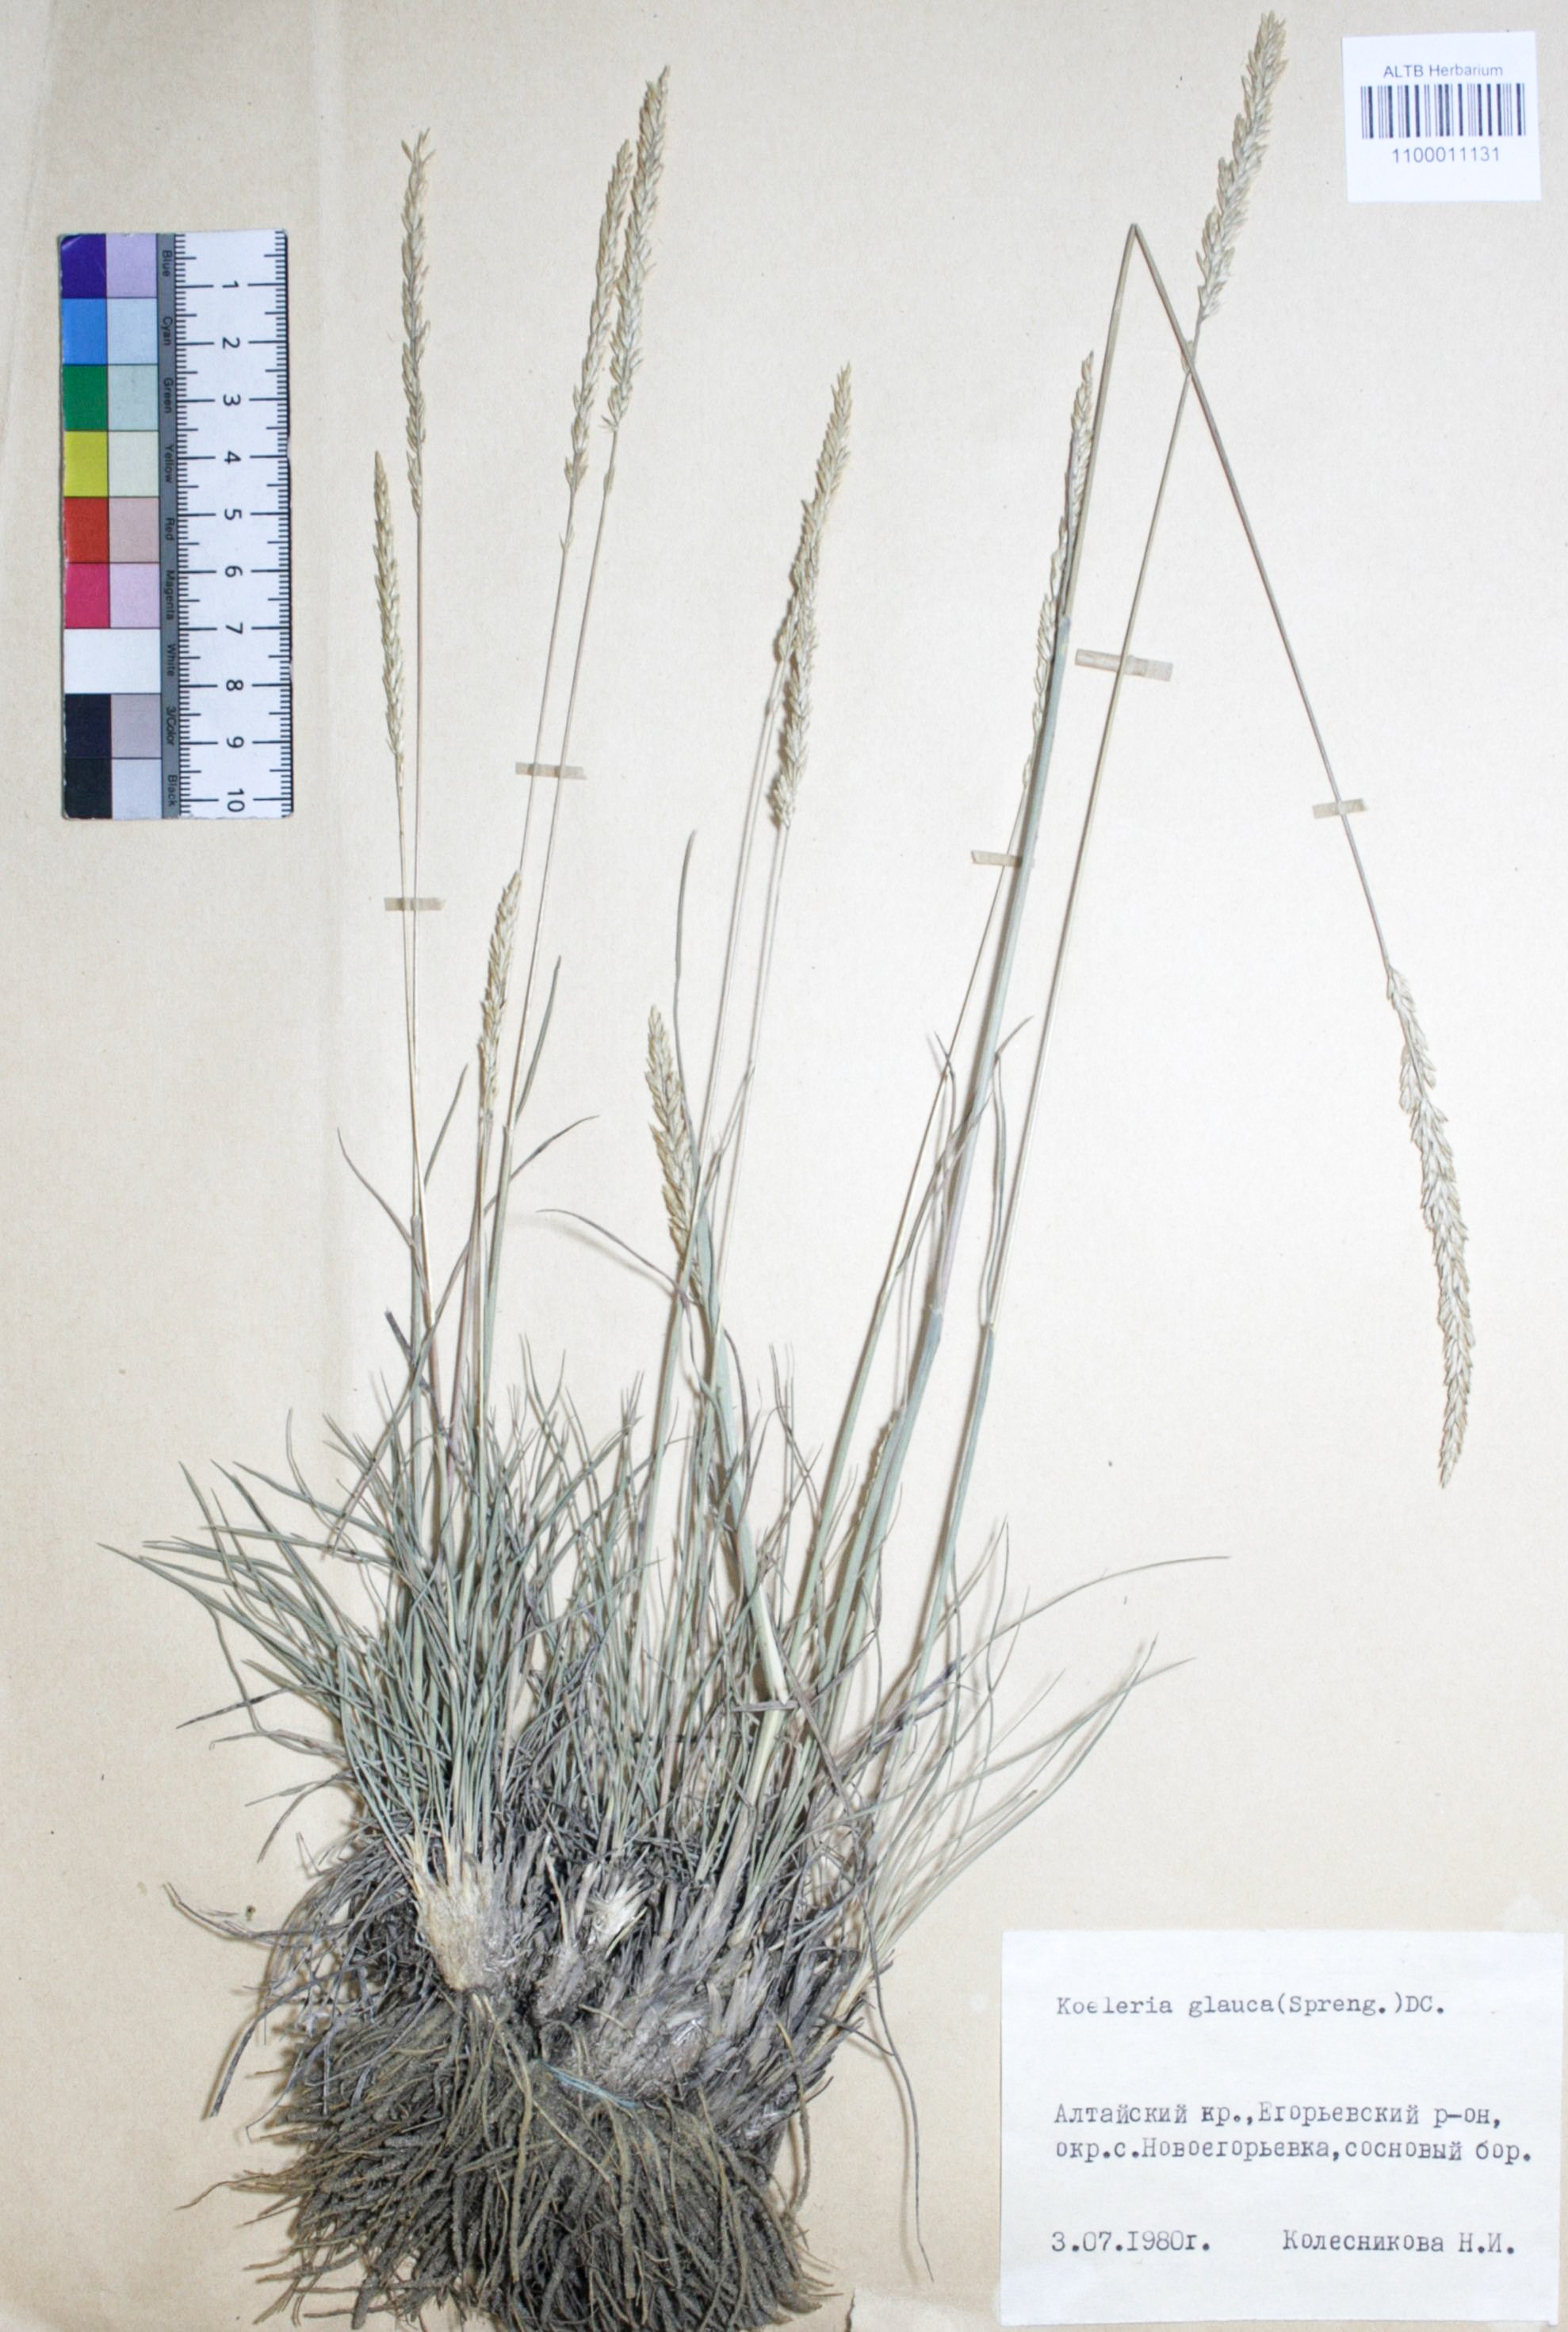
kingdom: Plantae
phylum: Tracheophyta
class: Liliopsida
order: Poales
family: Poaceae
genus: Koeleria
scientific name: Koeleria glauca
